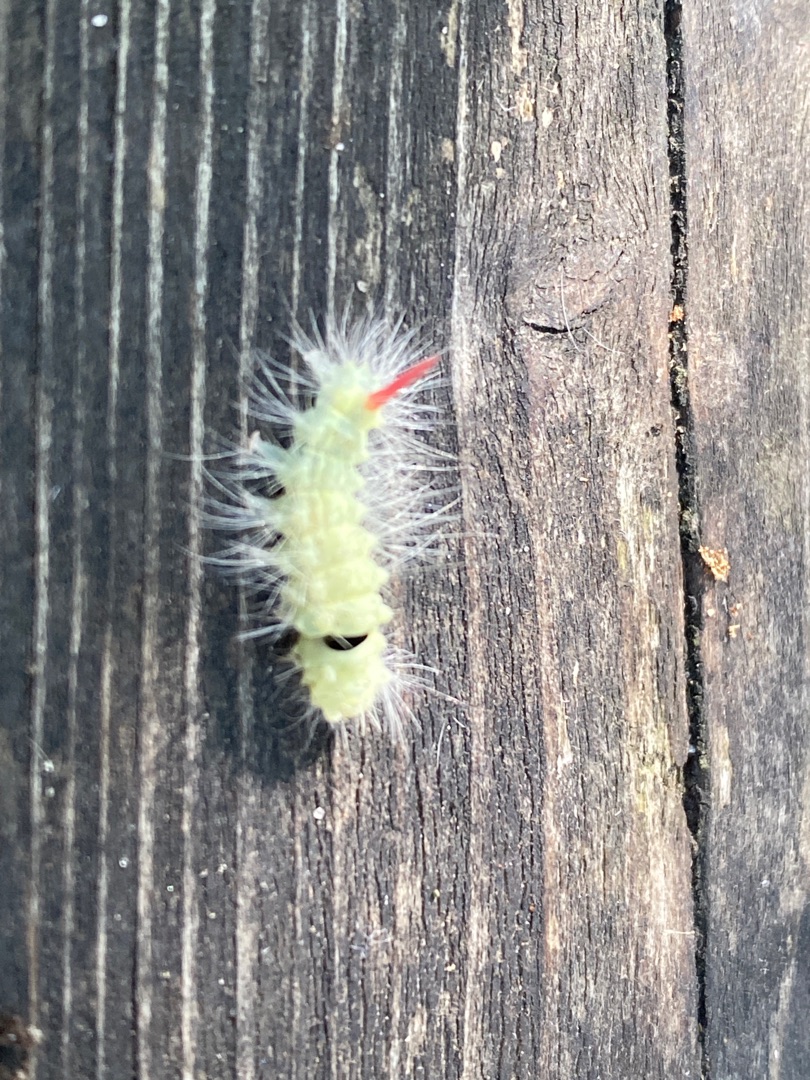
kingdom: Animalia
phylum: Arthropoda
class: Insecta
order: Lepidoptera
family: Erebidae
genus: Calliteara
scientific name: Calliteara pudibunda
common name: Bøgenonne
